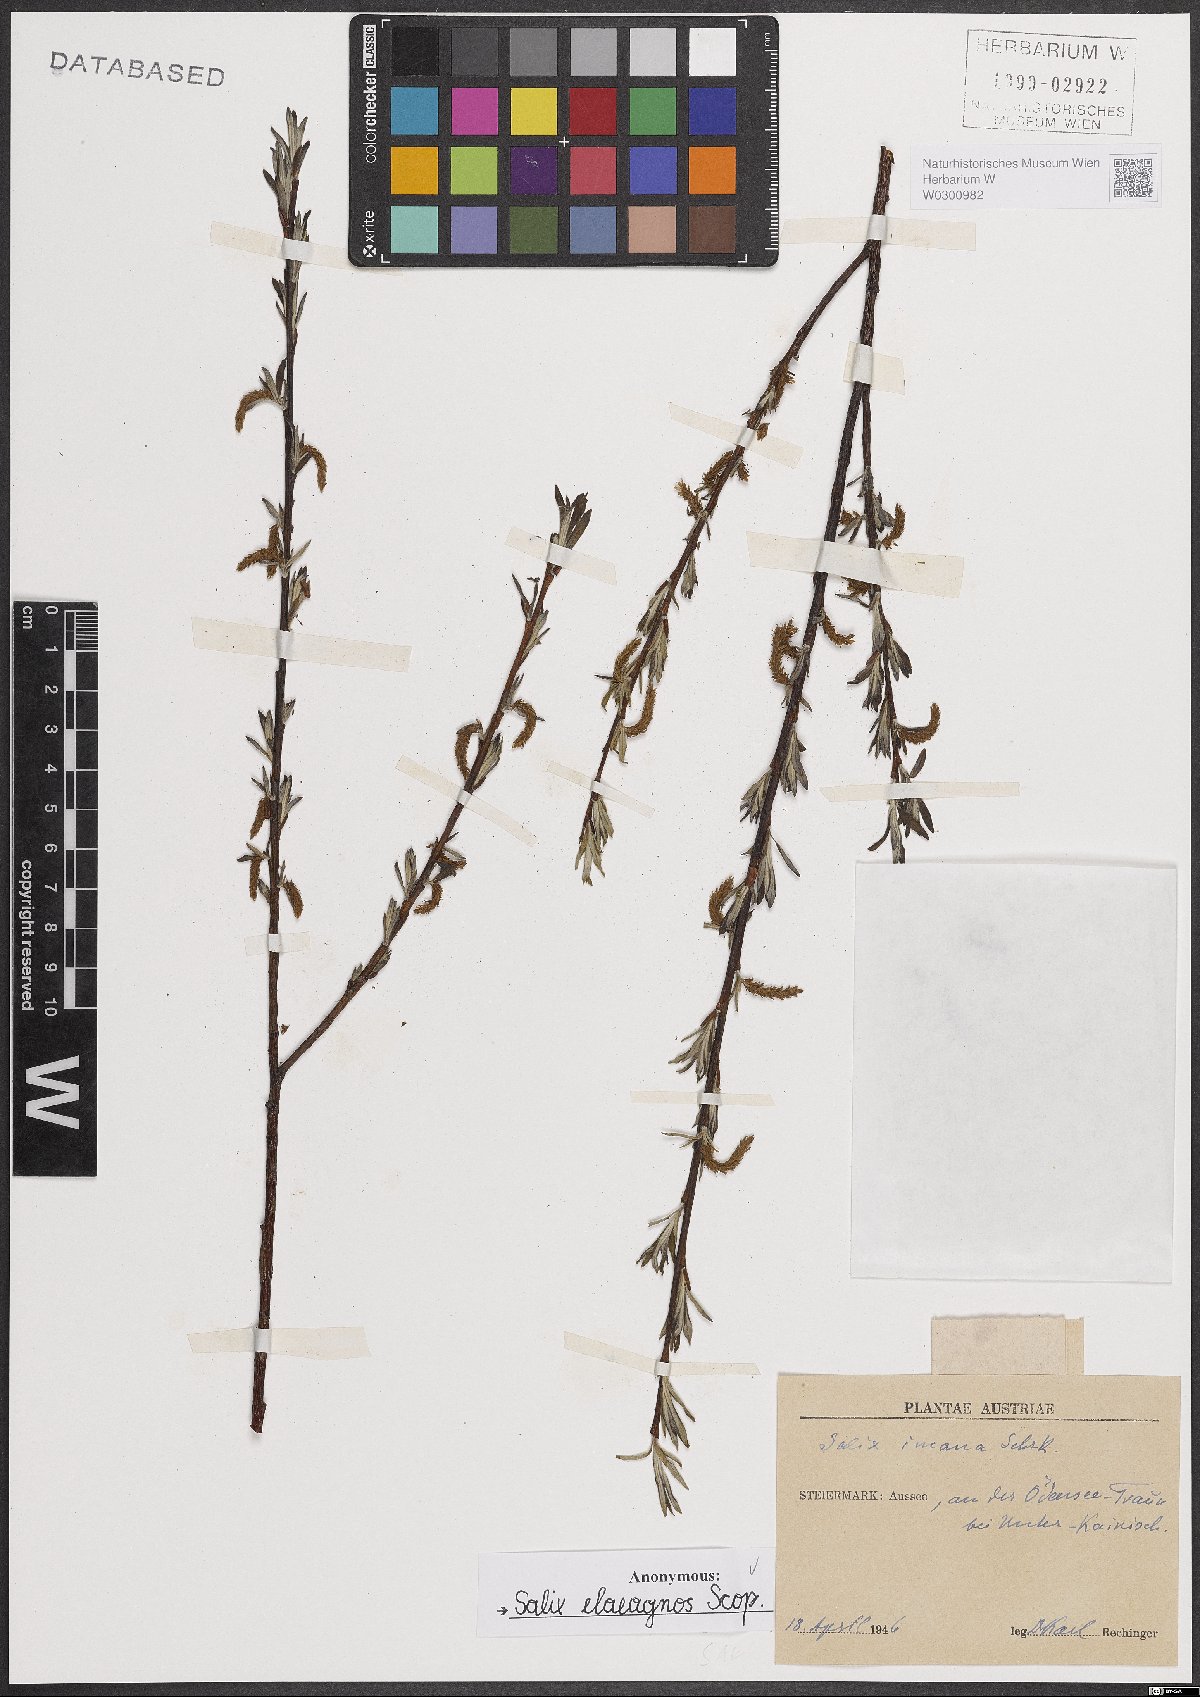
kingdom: Plantae
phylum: Tracheophyta
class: Magnoliopsida
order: Malpighiales
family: Salicaceae
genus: Salix
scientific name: Salix eleagnos
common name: Elaeagnus willow
